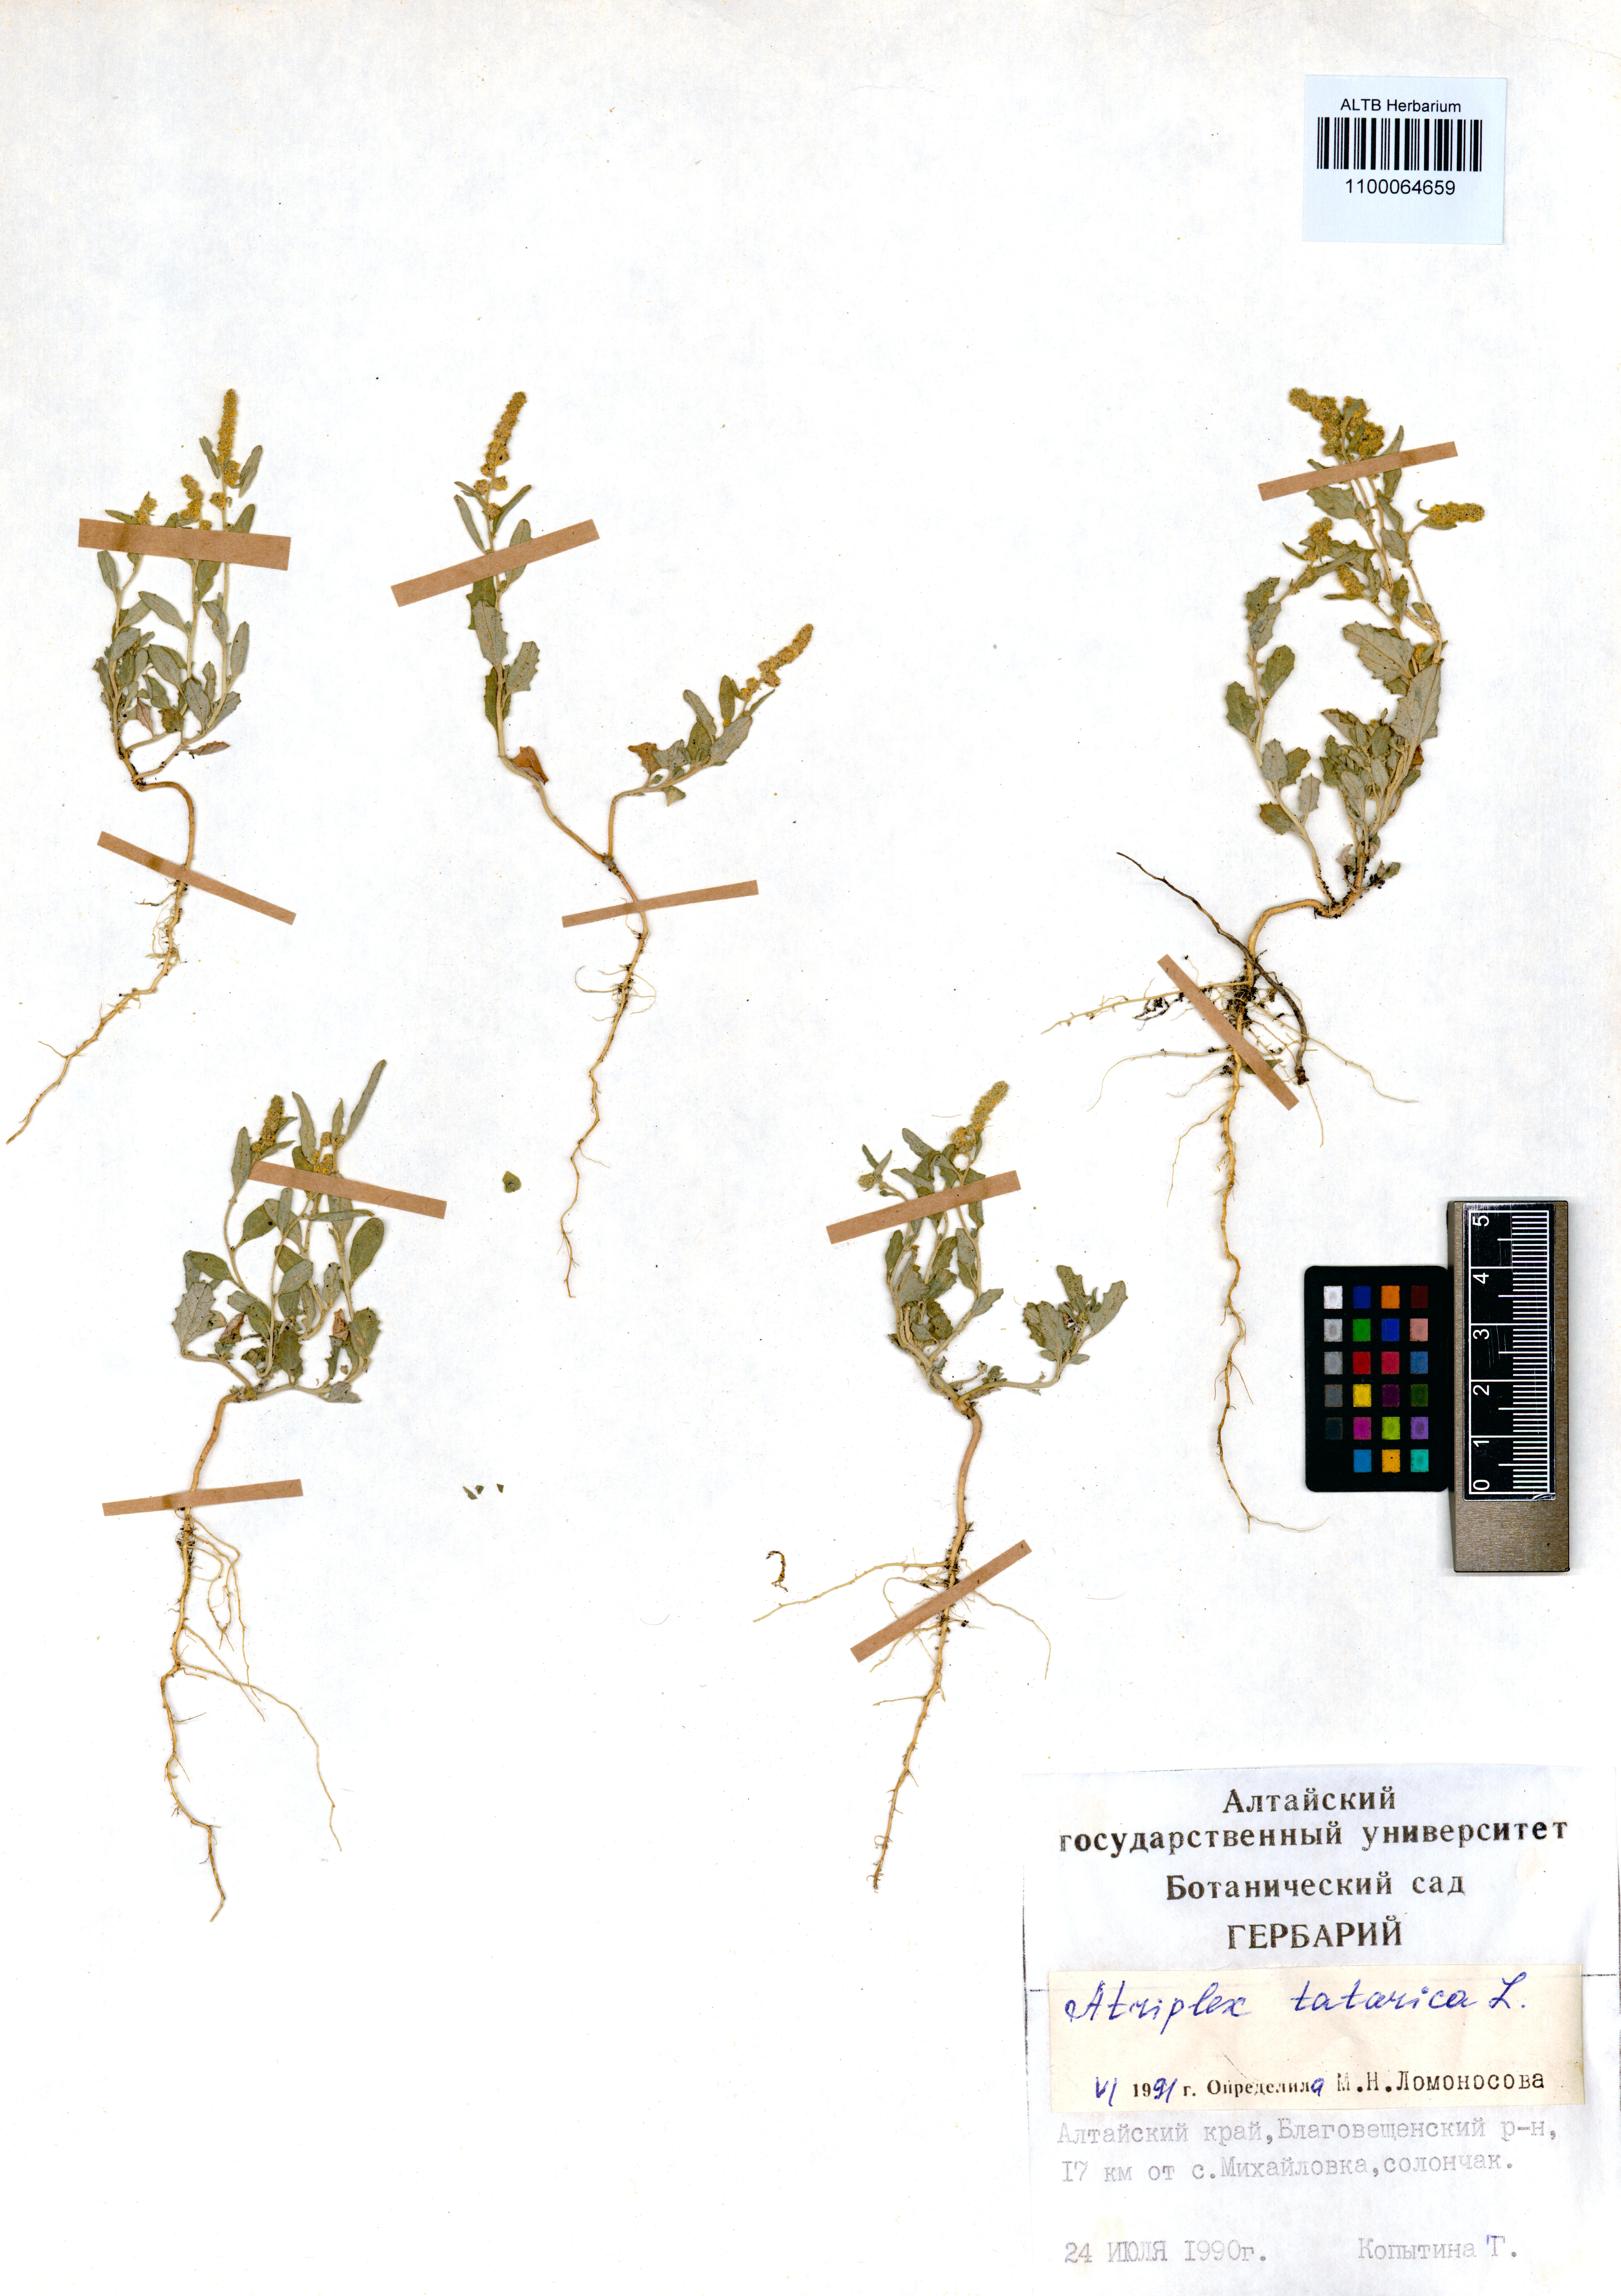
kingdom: Plantae
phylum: Tracheophyta
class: Magnoliopsida
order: Caryophyllales
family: Amaranthaceae
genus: Atriplex
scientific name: Atriplex tatarica
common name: Tatarian orache
